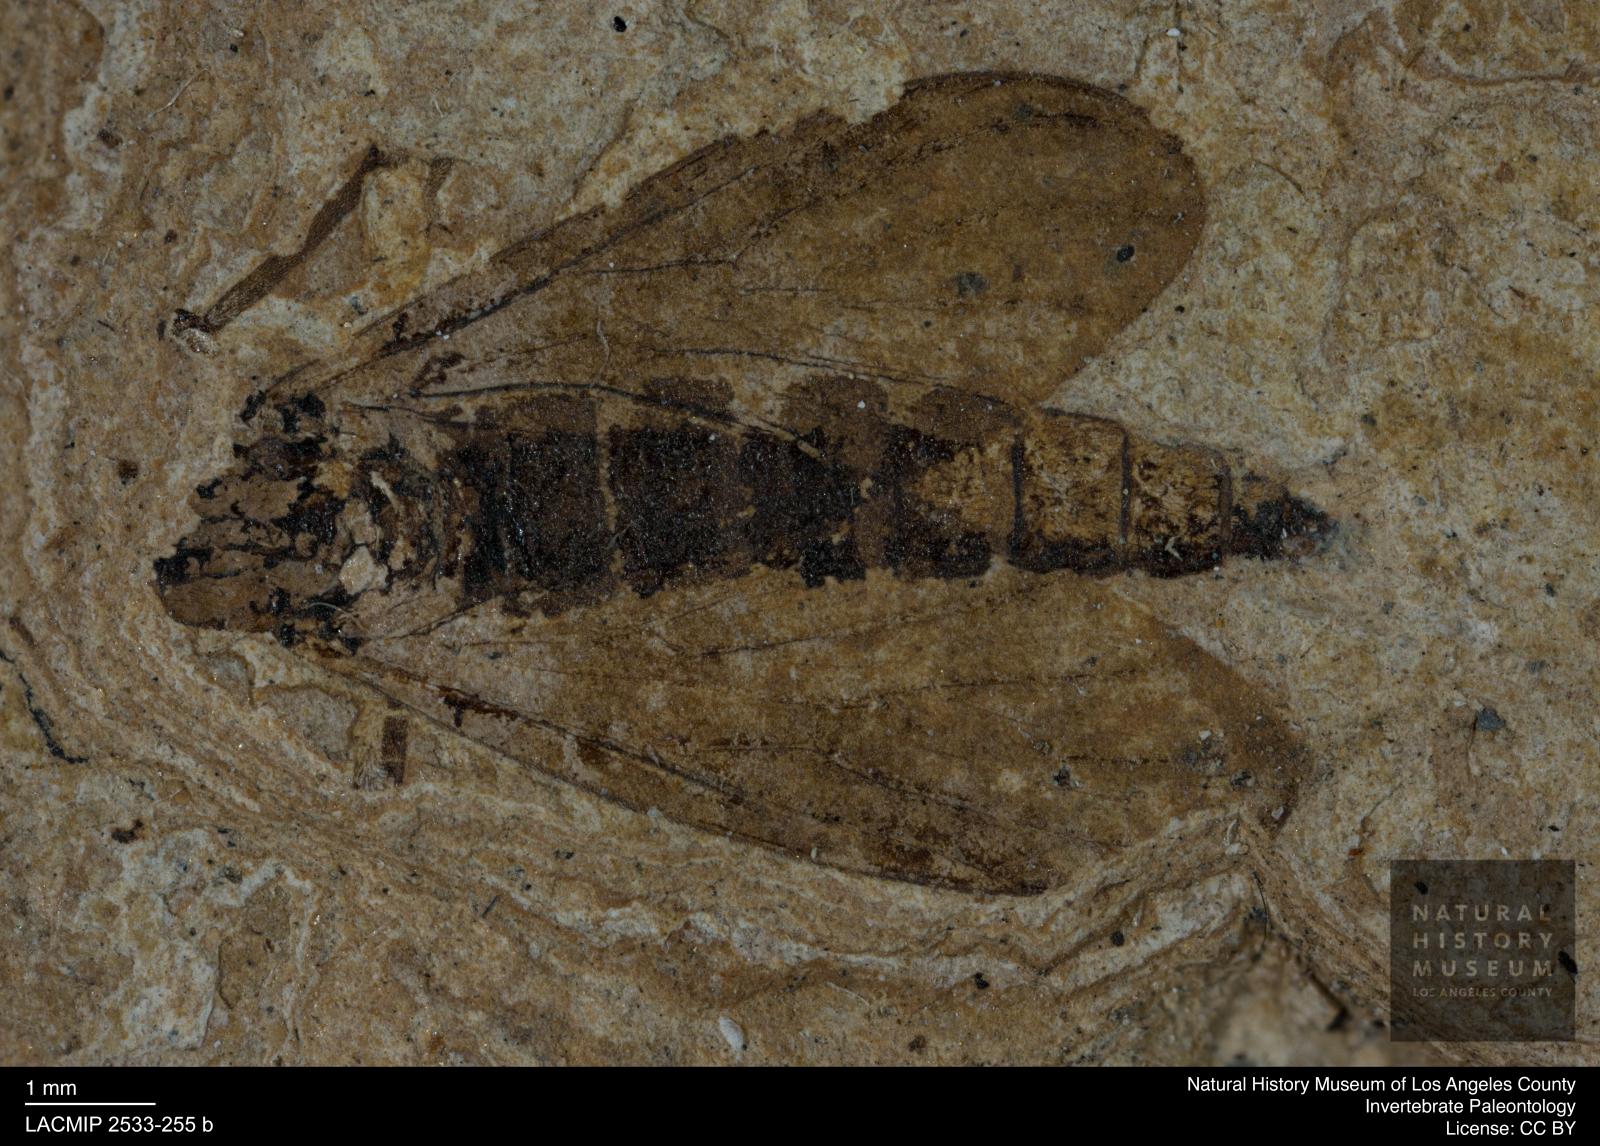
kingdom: Animalia
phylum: Arthropoda
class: Insecta
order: Diptera
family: Bibionidae
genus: Penthetria
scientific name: Penthetria tropica
